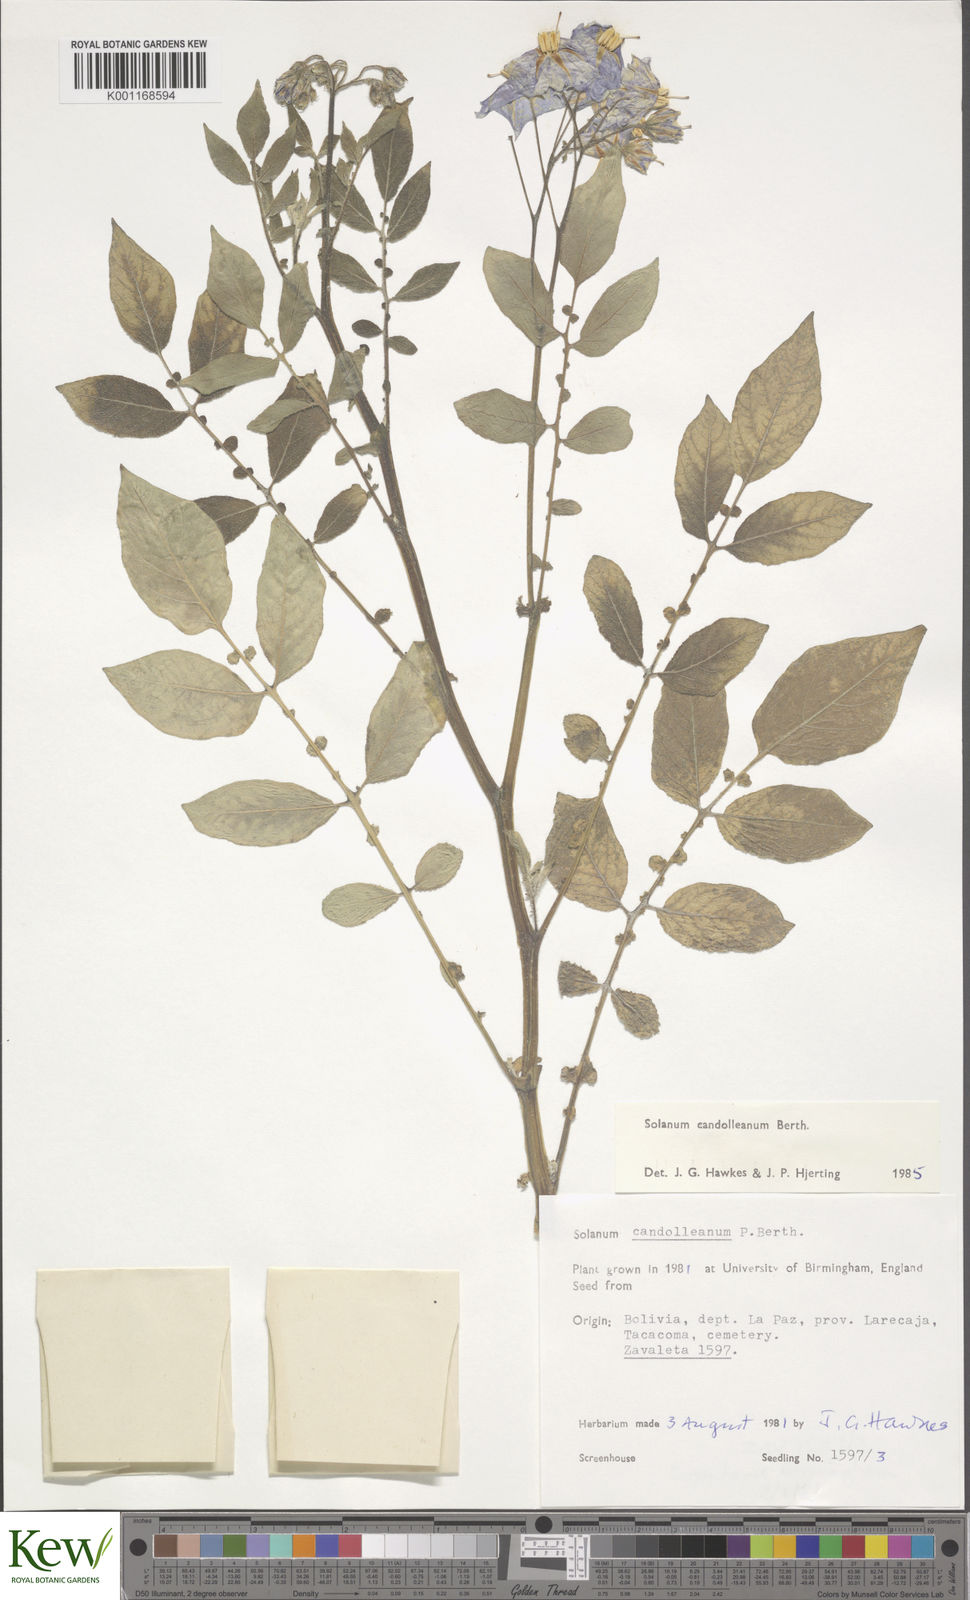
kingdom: Plantae
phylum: Tracheophyta
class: Magnoliopsida
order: Solanales
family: Solanaceae
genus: Solanum
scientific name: Solanum candolleanum
